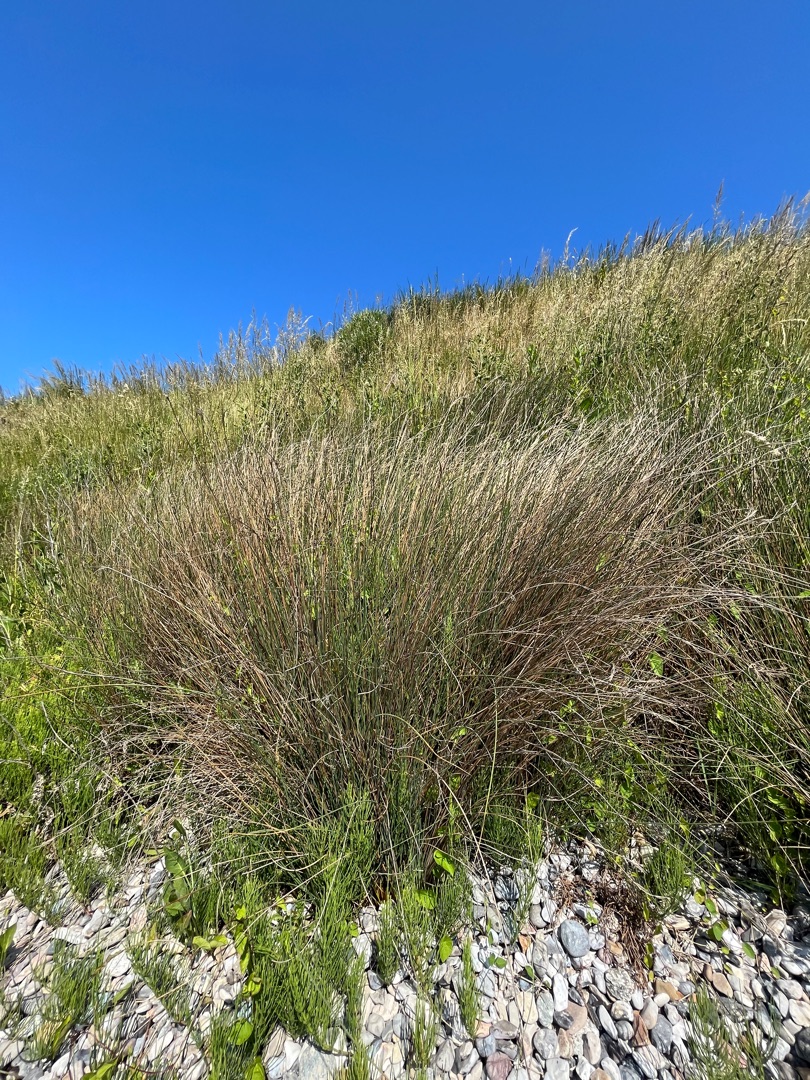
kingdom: Plantae
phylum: Tracheophyta
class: Liliopsida
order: Poales
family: Juncaceae
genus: Juncus
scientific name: Juncus inflexus
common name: Blågrå siv
